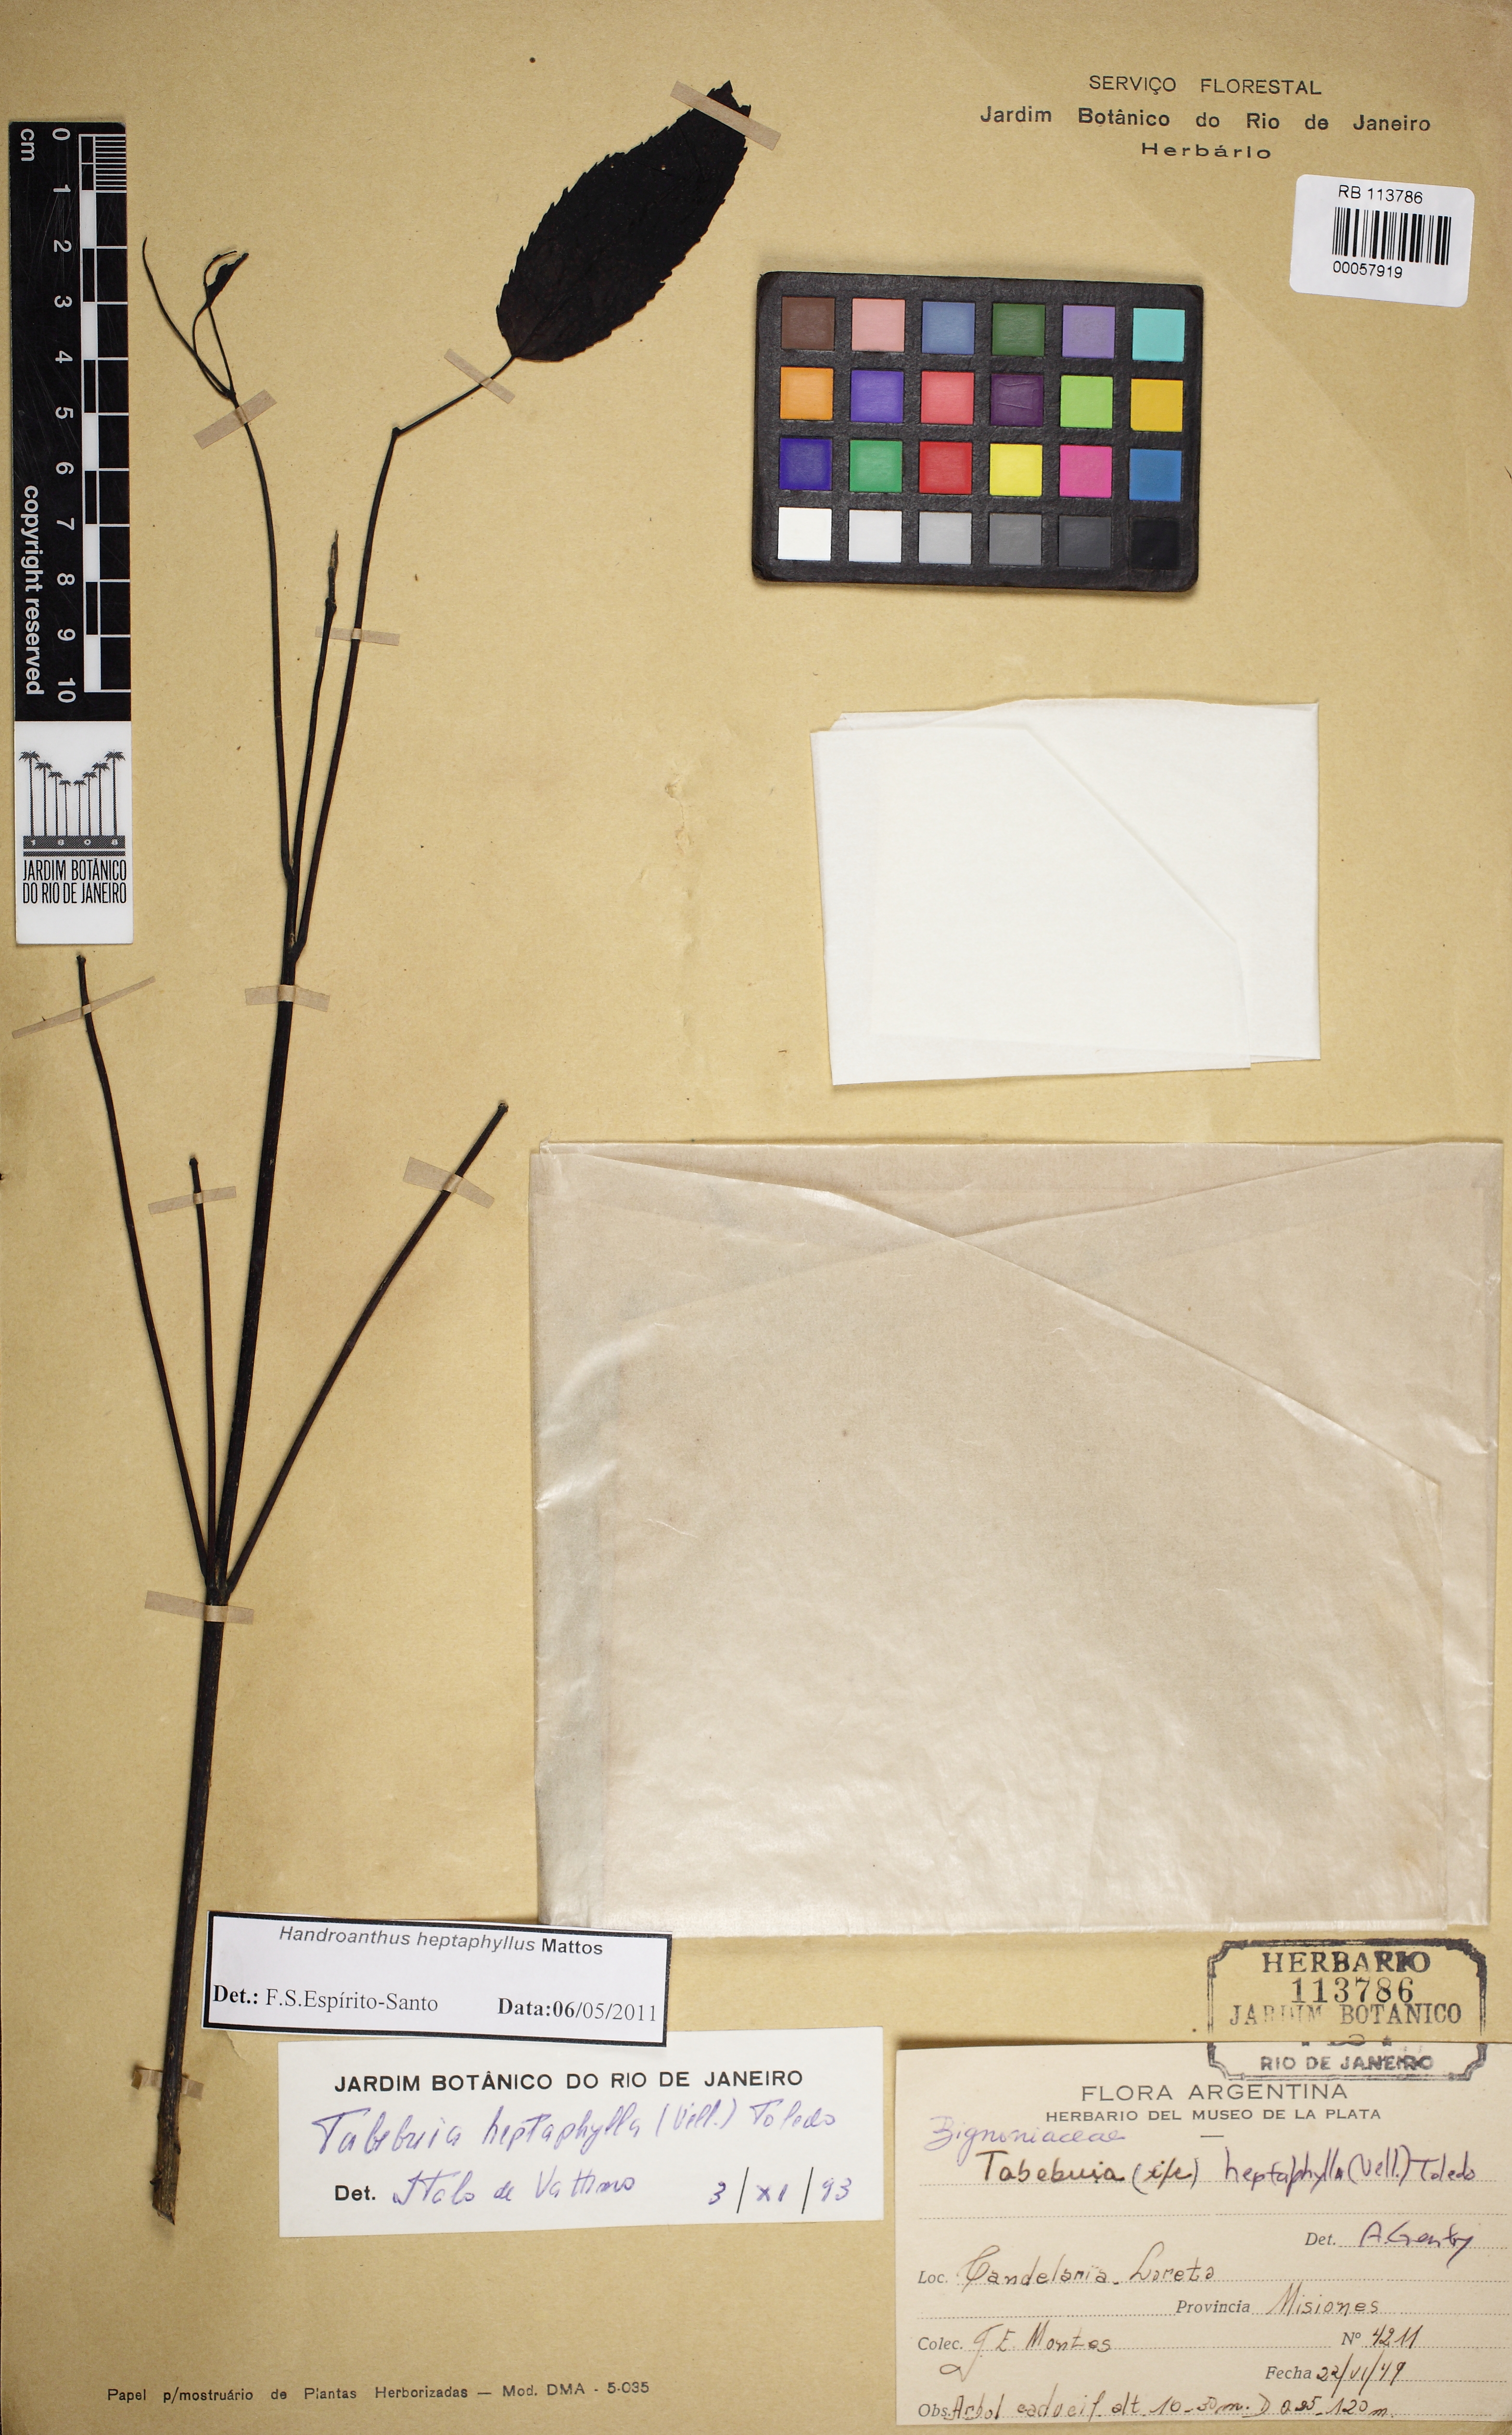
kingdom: Plantae
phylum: Tracheophyta
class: Magnoliopsida
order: Lamiales
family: Bignoniaceae
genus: Handroanthus
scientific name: Handroanthus heptaphyllus
